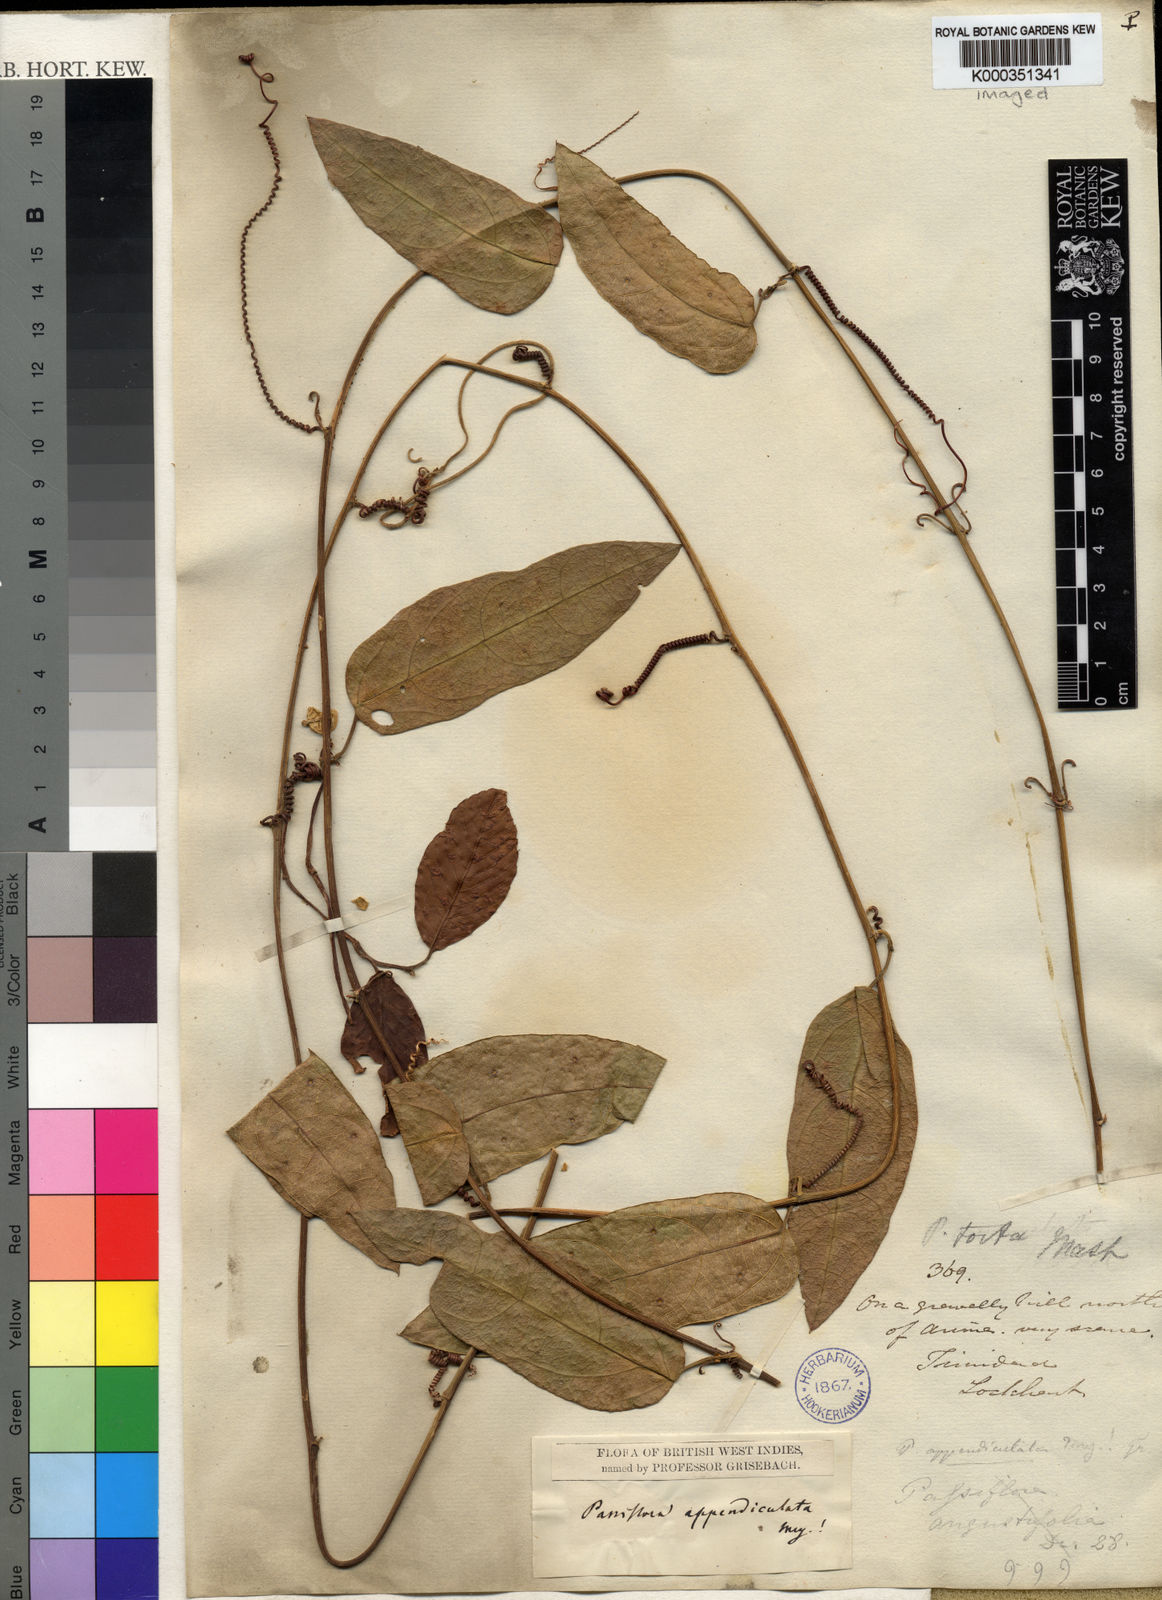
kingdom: Plantae
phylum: Tracheophyta
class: Magnoliopsida
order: Malpighiales
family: Passifloraceae
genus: Passiflora
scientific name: Passiflora
